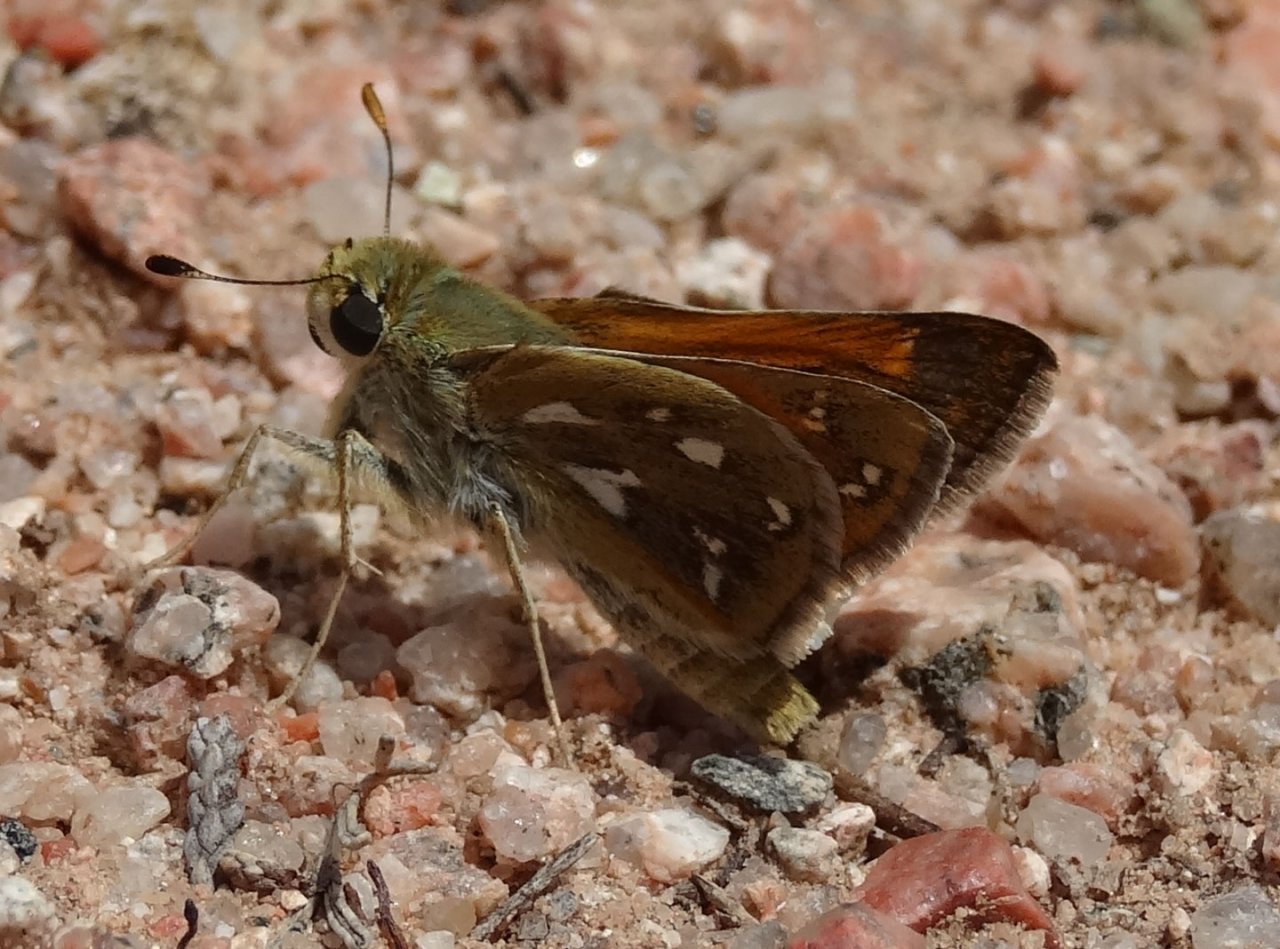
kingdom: Animalia
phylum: Arthropoda
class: Insecta
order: Lepidoptera
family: Hesperiidae
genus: Hesperia
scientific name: Hesperia viridis
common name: Green Skipper
